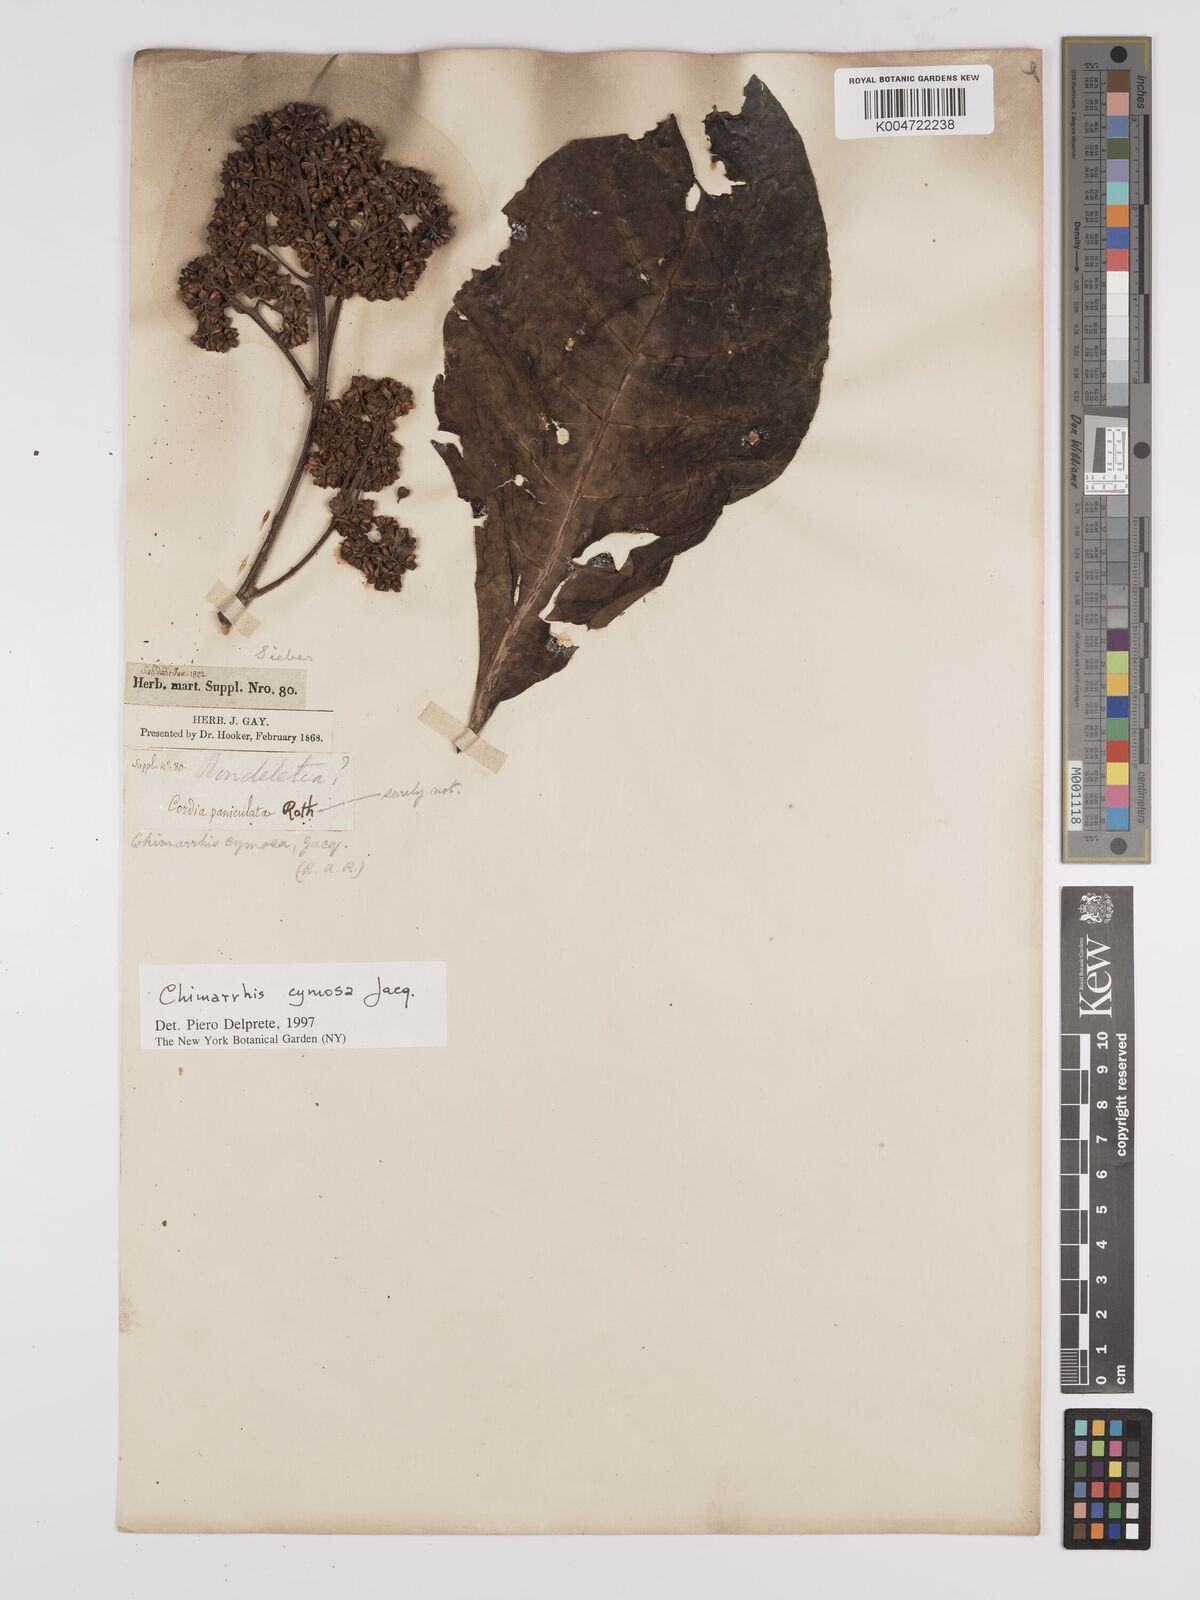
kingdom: Plantae
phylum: Tracheophyta
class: Magnoliopsida
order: Gentianales
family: Rubiaceae
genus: Chimarrhis
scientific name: Chimarrhis cymosa
